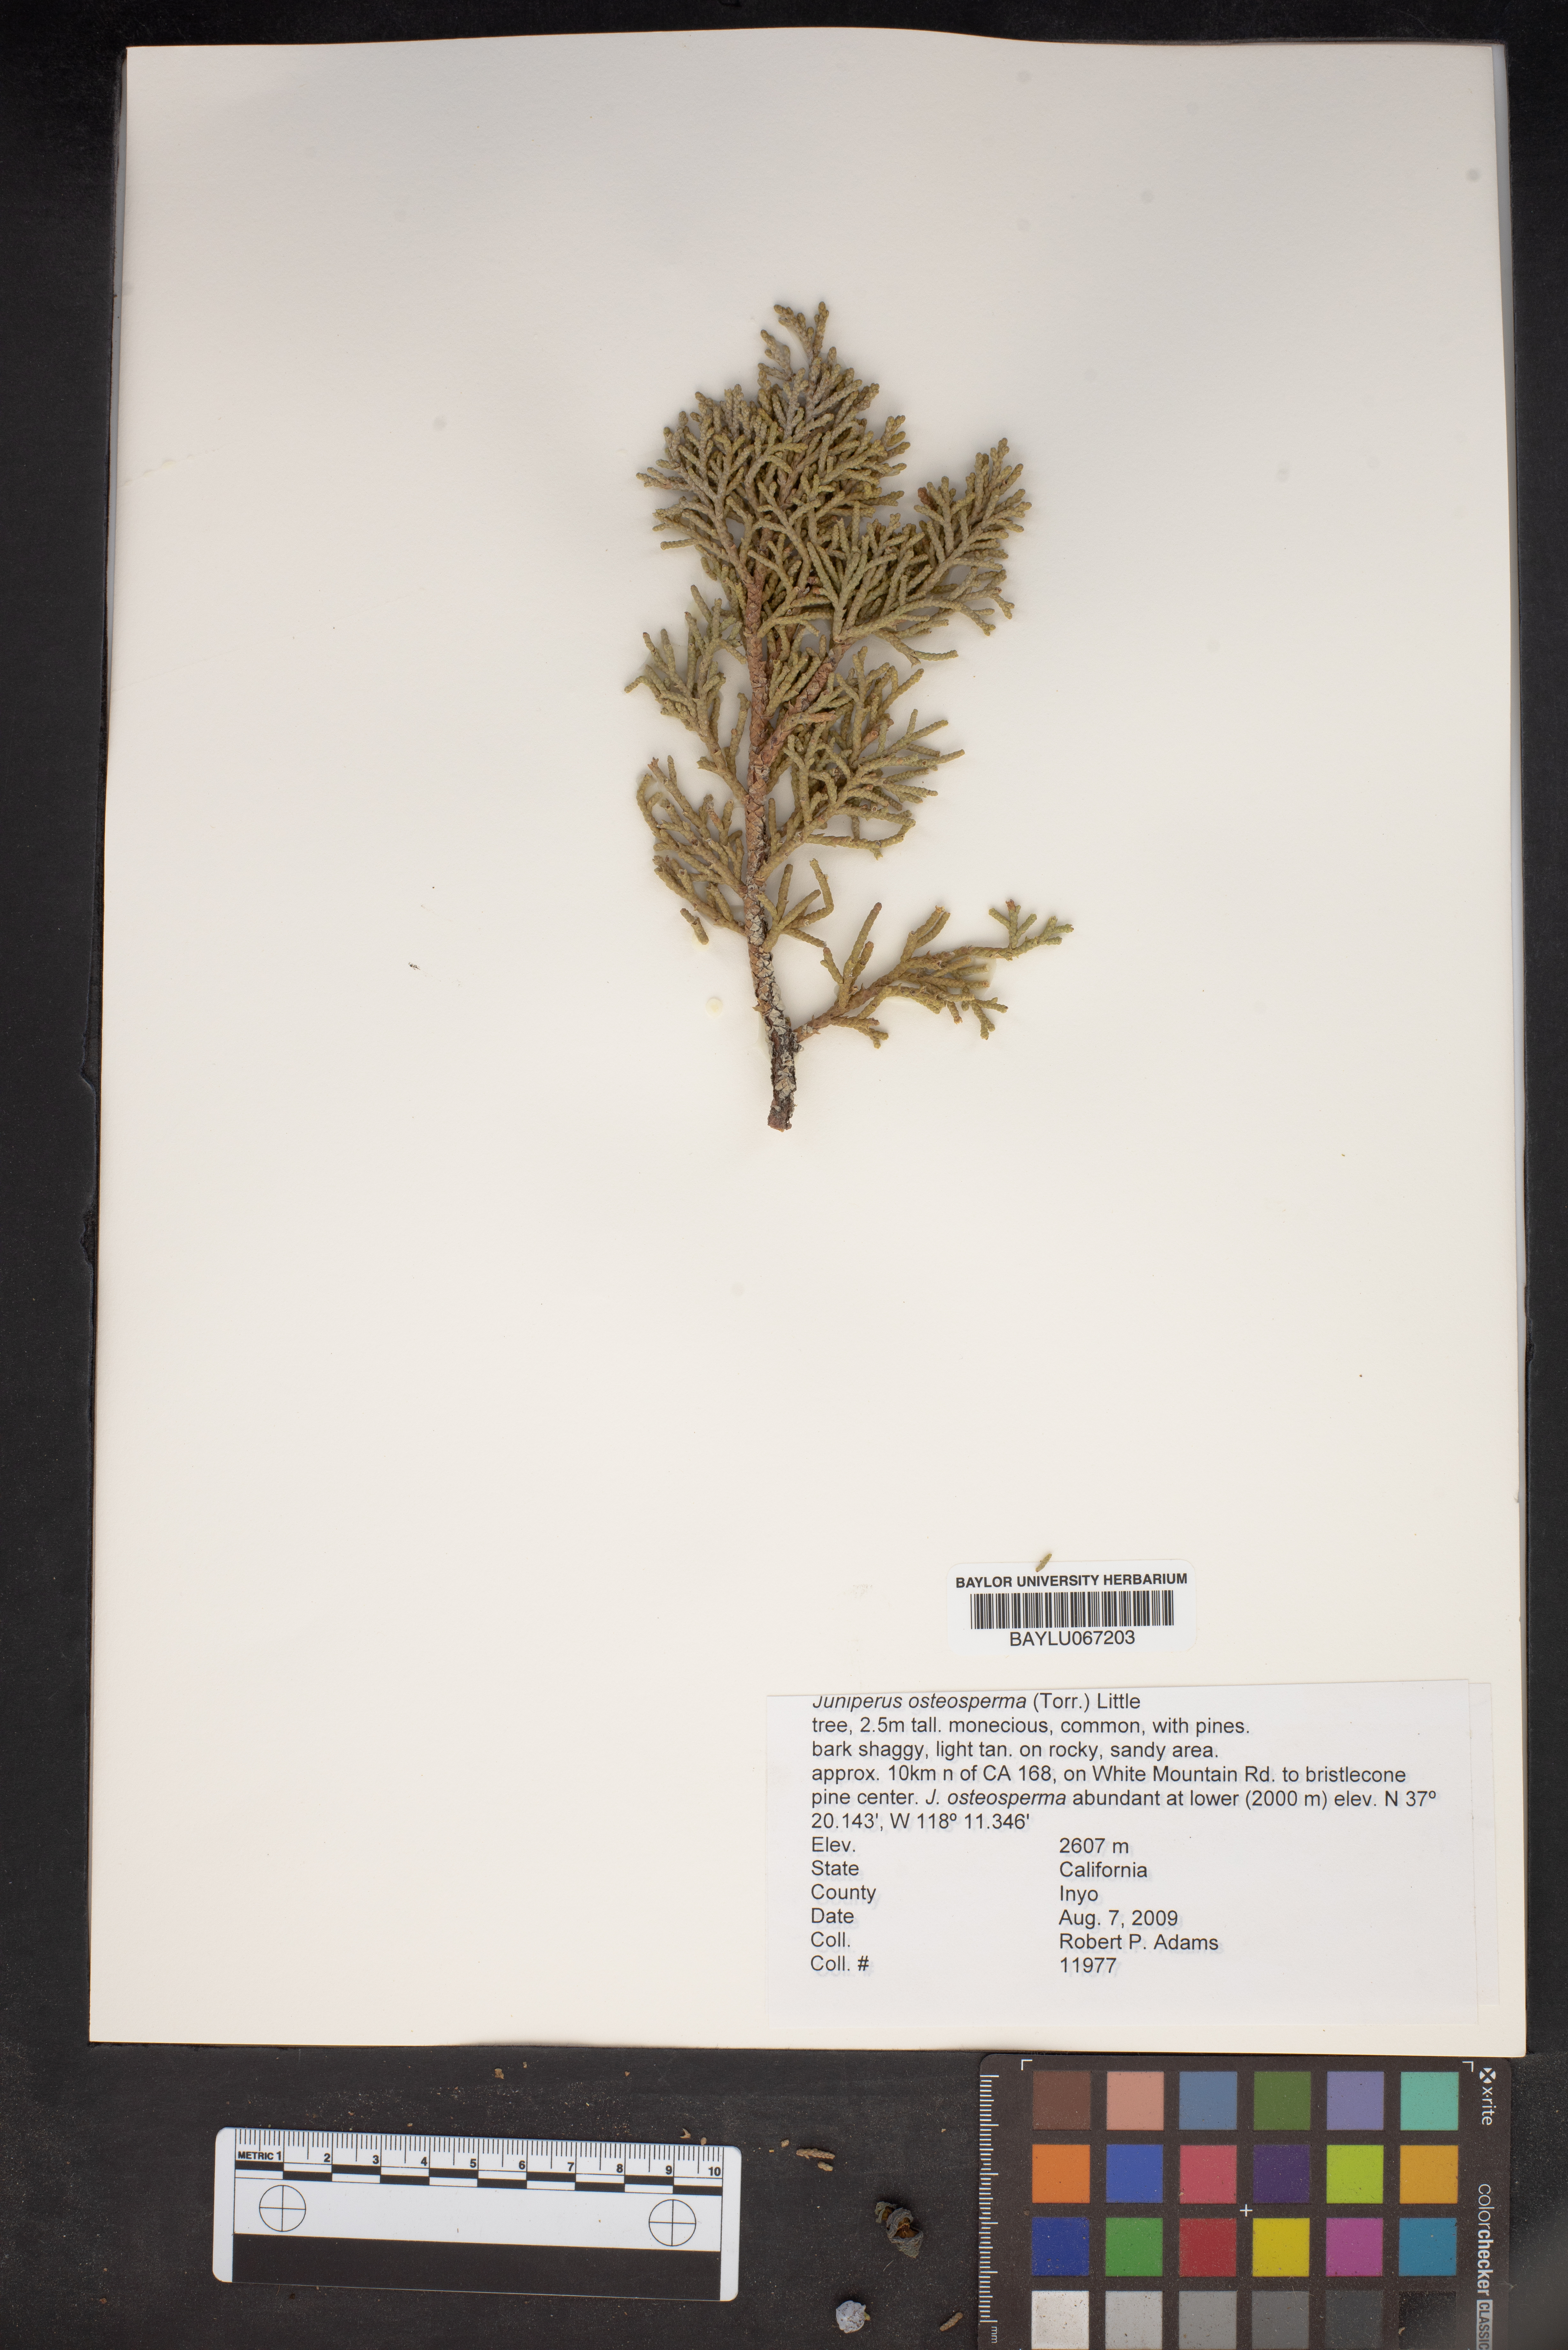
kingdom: Plantae
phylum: Tracheophyta
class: Pinopsida
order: Pinales
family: Cupressaceae
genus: Juniperus
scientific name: Juniperus osteosperma
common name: Utah juniper
